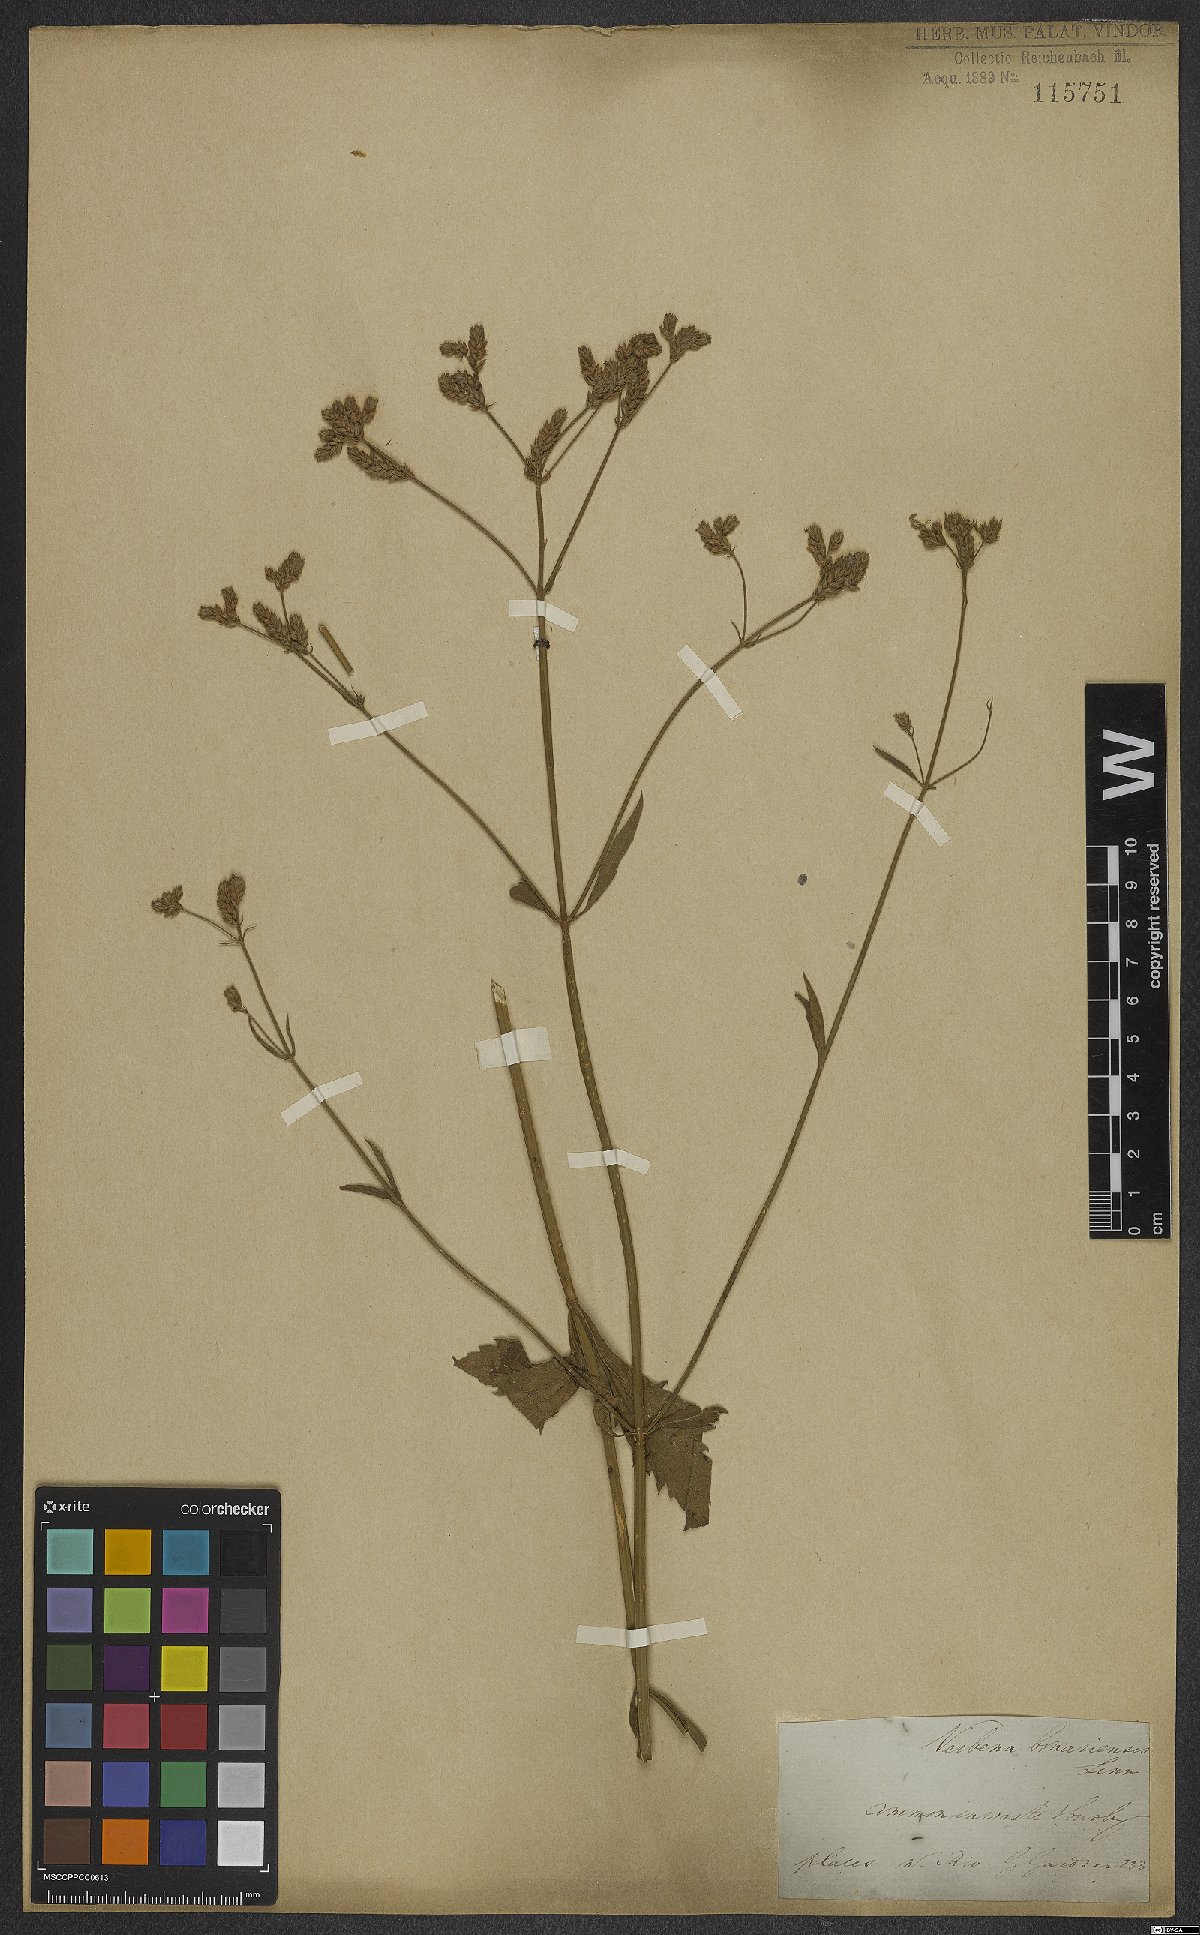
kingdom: Plantae
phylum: Tracheophyta
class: Magnoliopsida
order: Lamiales
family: Verbenaceae
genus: Verbena
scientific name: Verbena bonariensis
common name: Purpletop vervain
